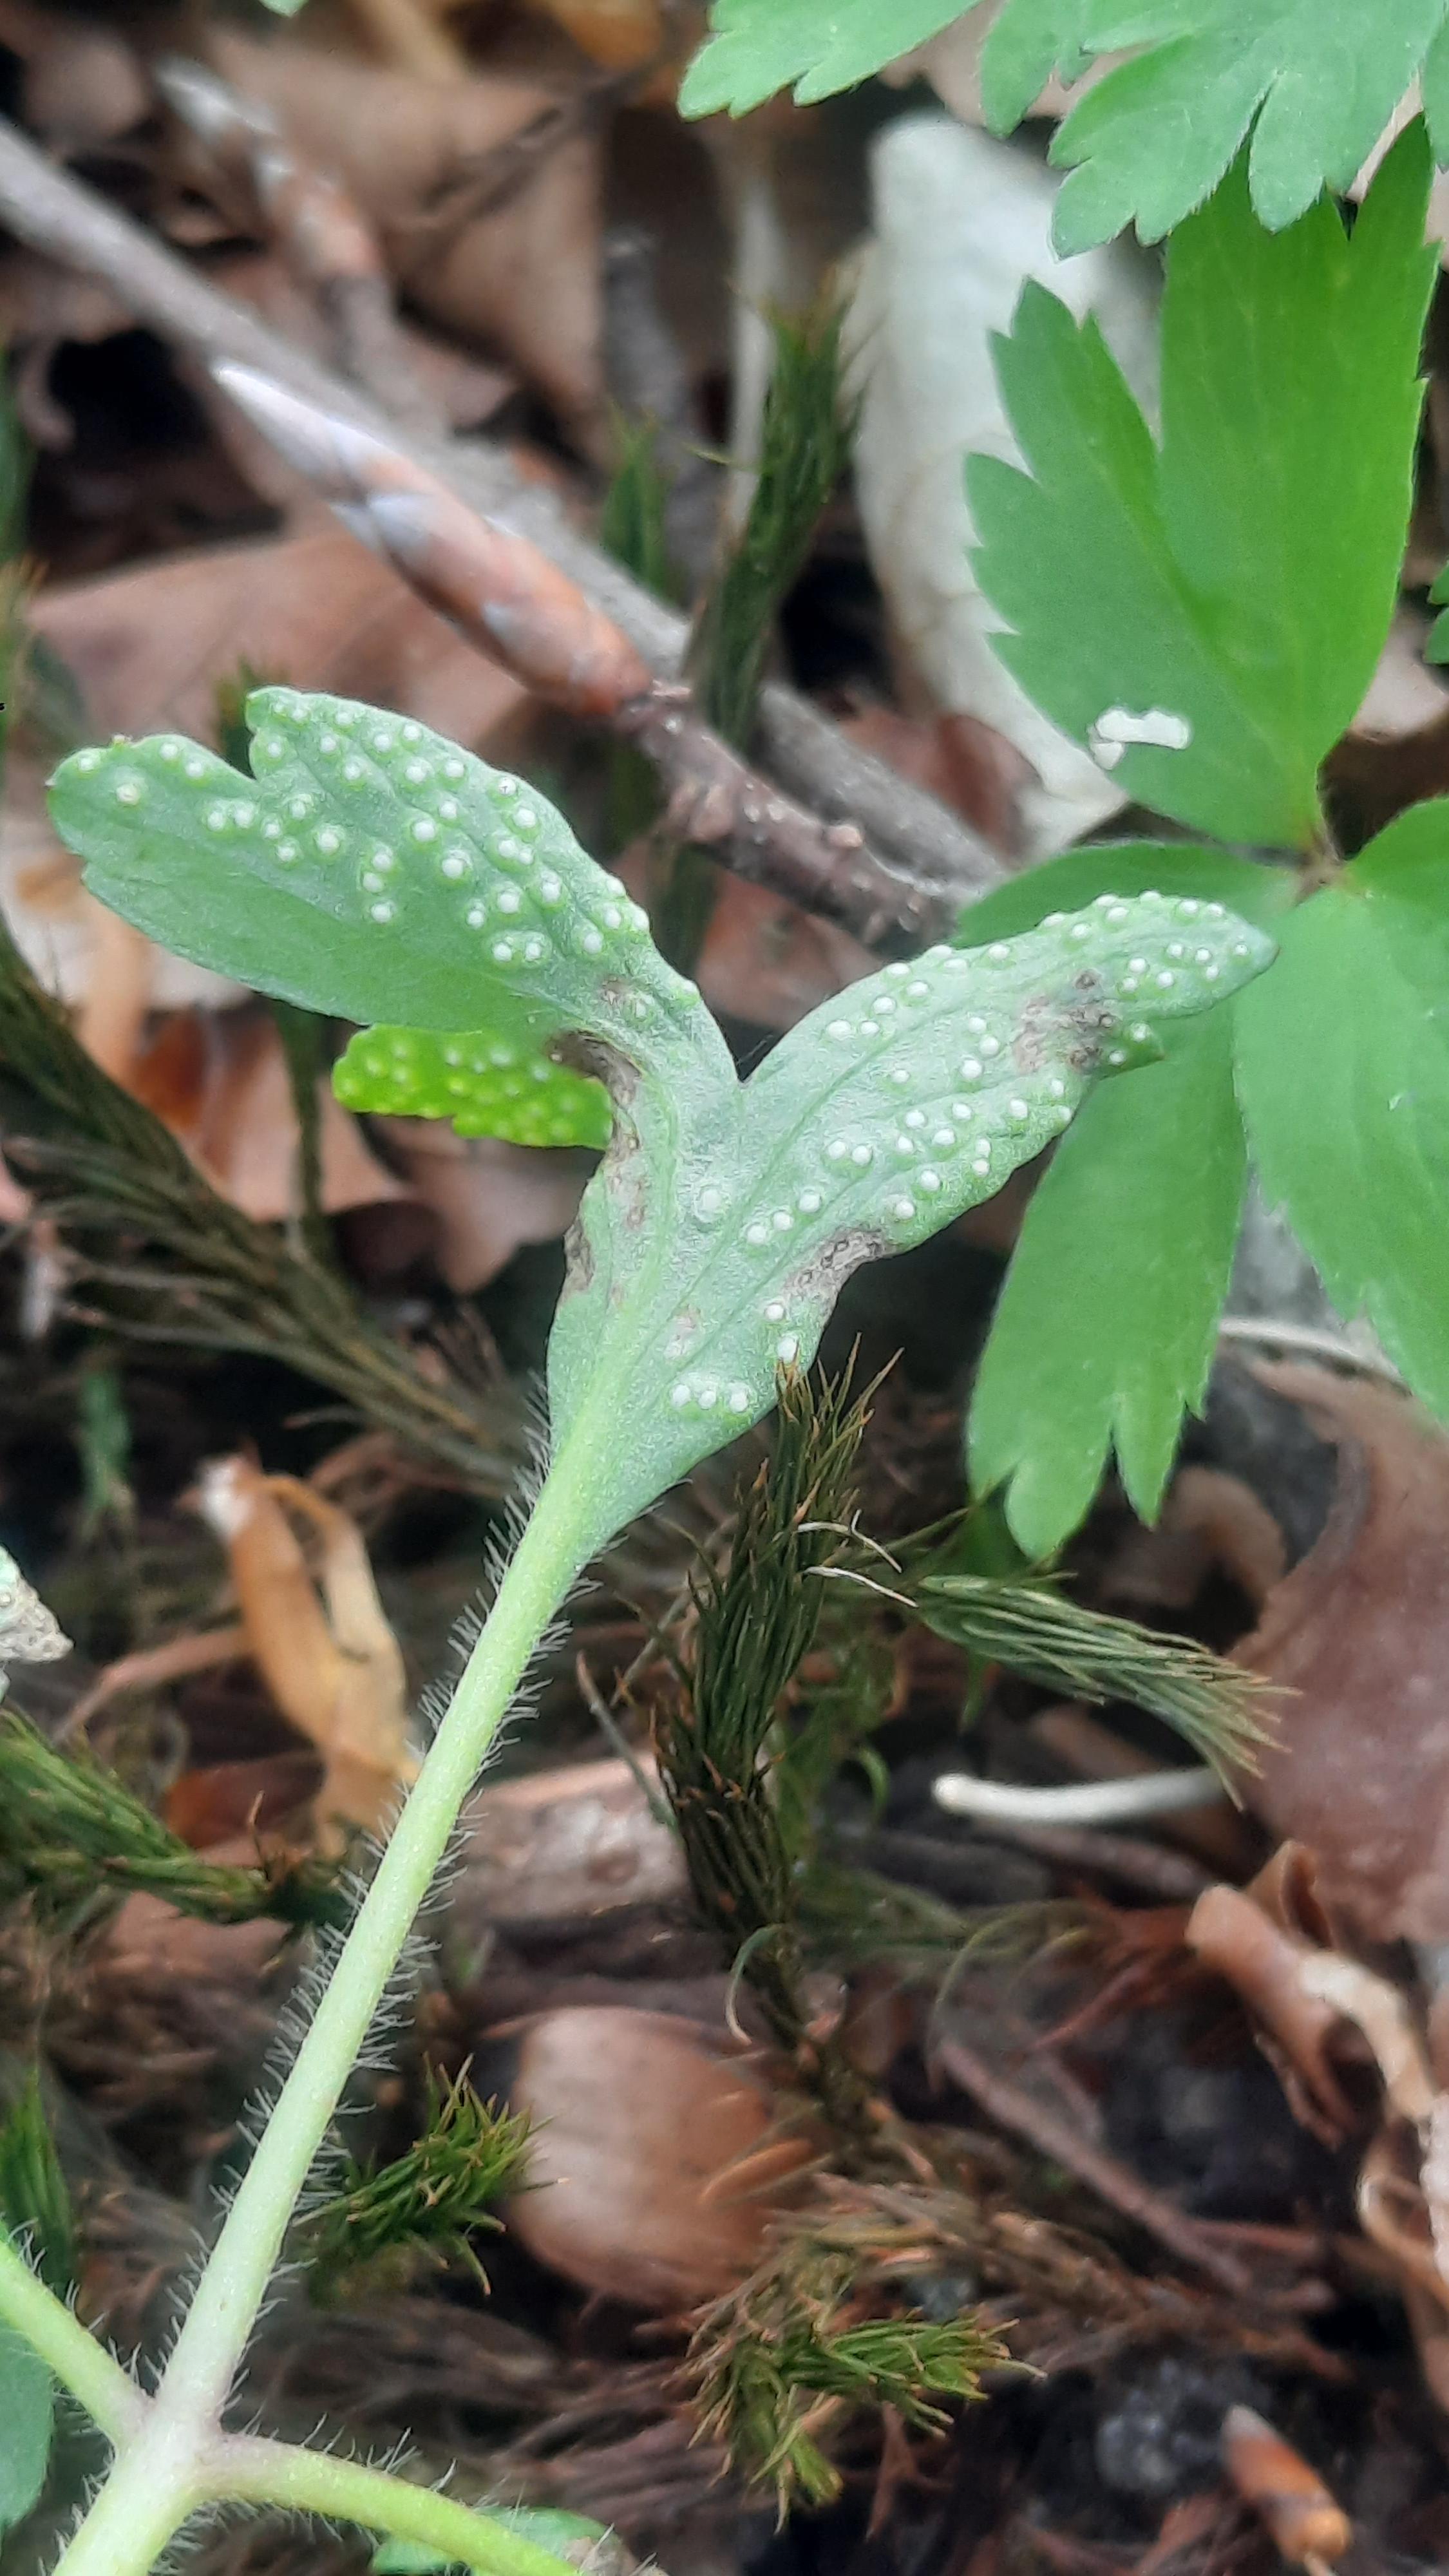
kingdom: Fungi
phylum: Basidiomycota
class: Pucciniomycetes
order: Pucciniales
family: Ochropsoraceae
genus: Ochropsora
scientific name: Ochropsora ariae
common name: anemone-okkerpletrust
